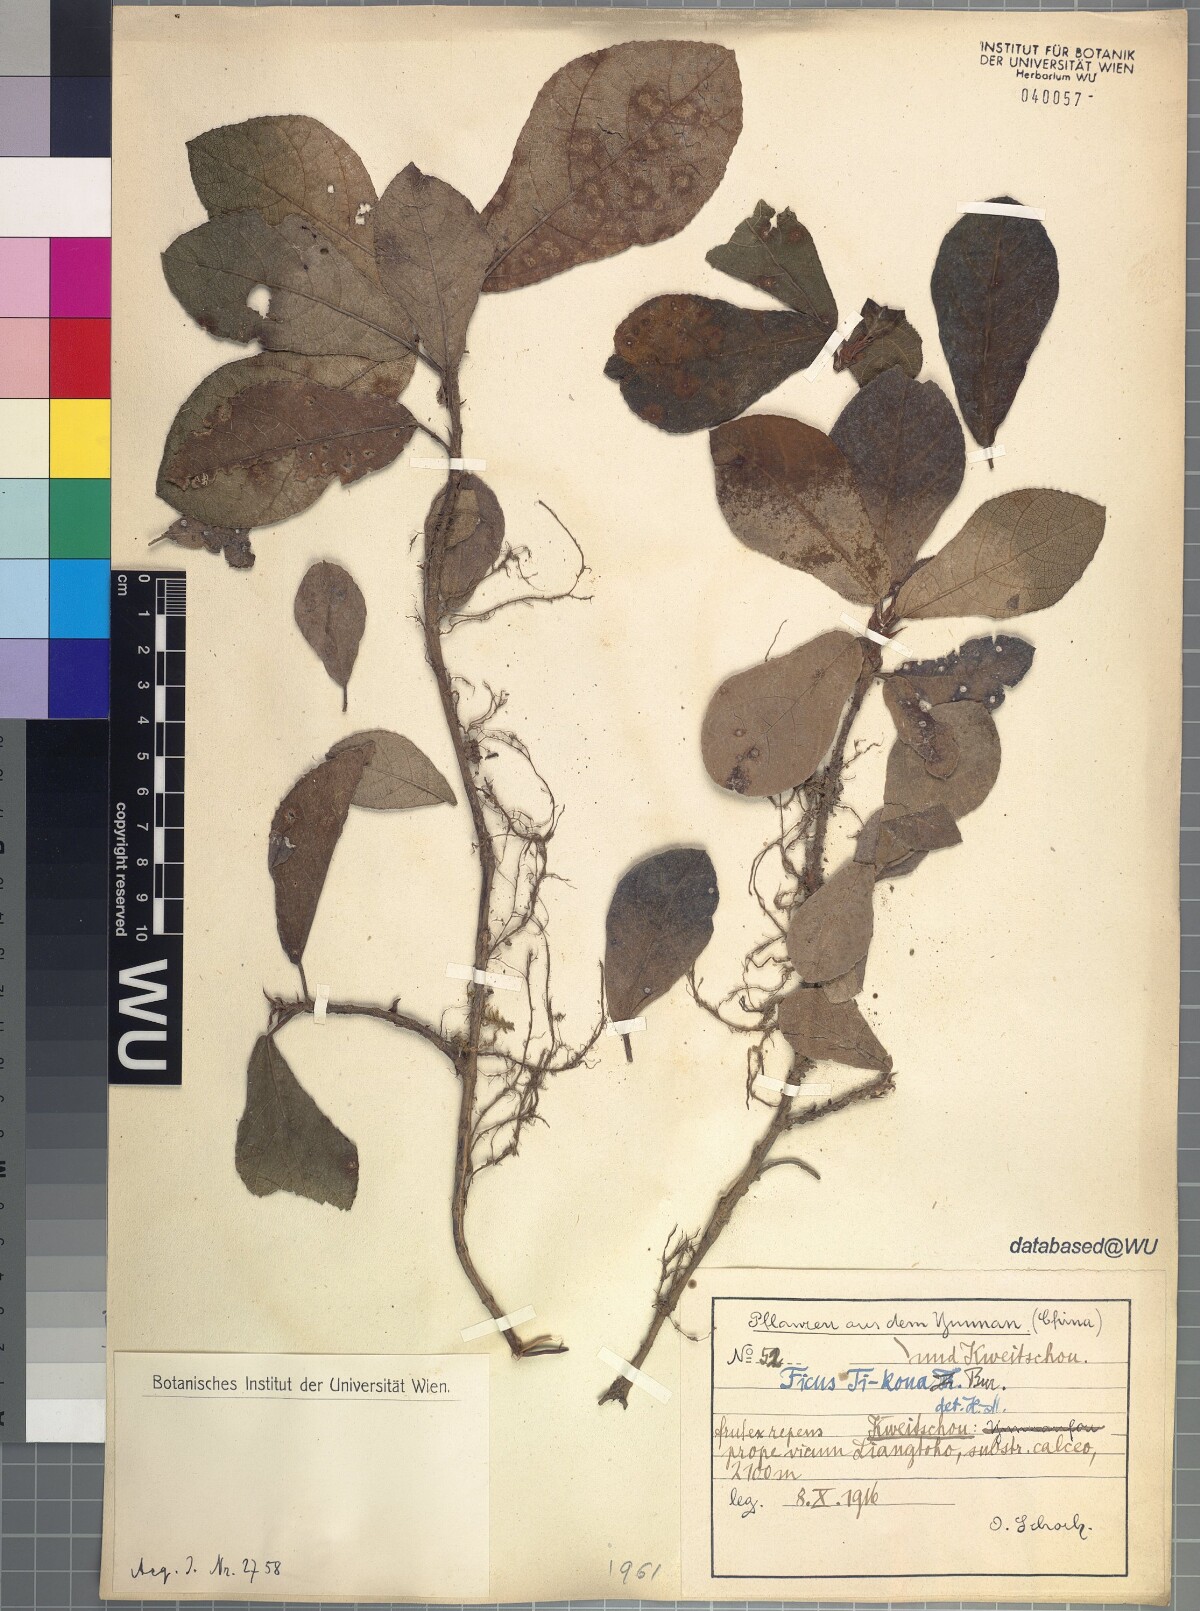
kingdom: Plantae
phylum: Tracheophyta
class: Magnoliopsida
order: Rosales
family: Moraceae
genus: Ficus
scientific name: Ficus tikoua
